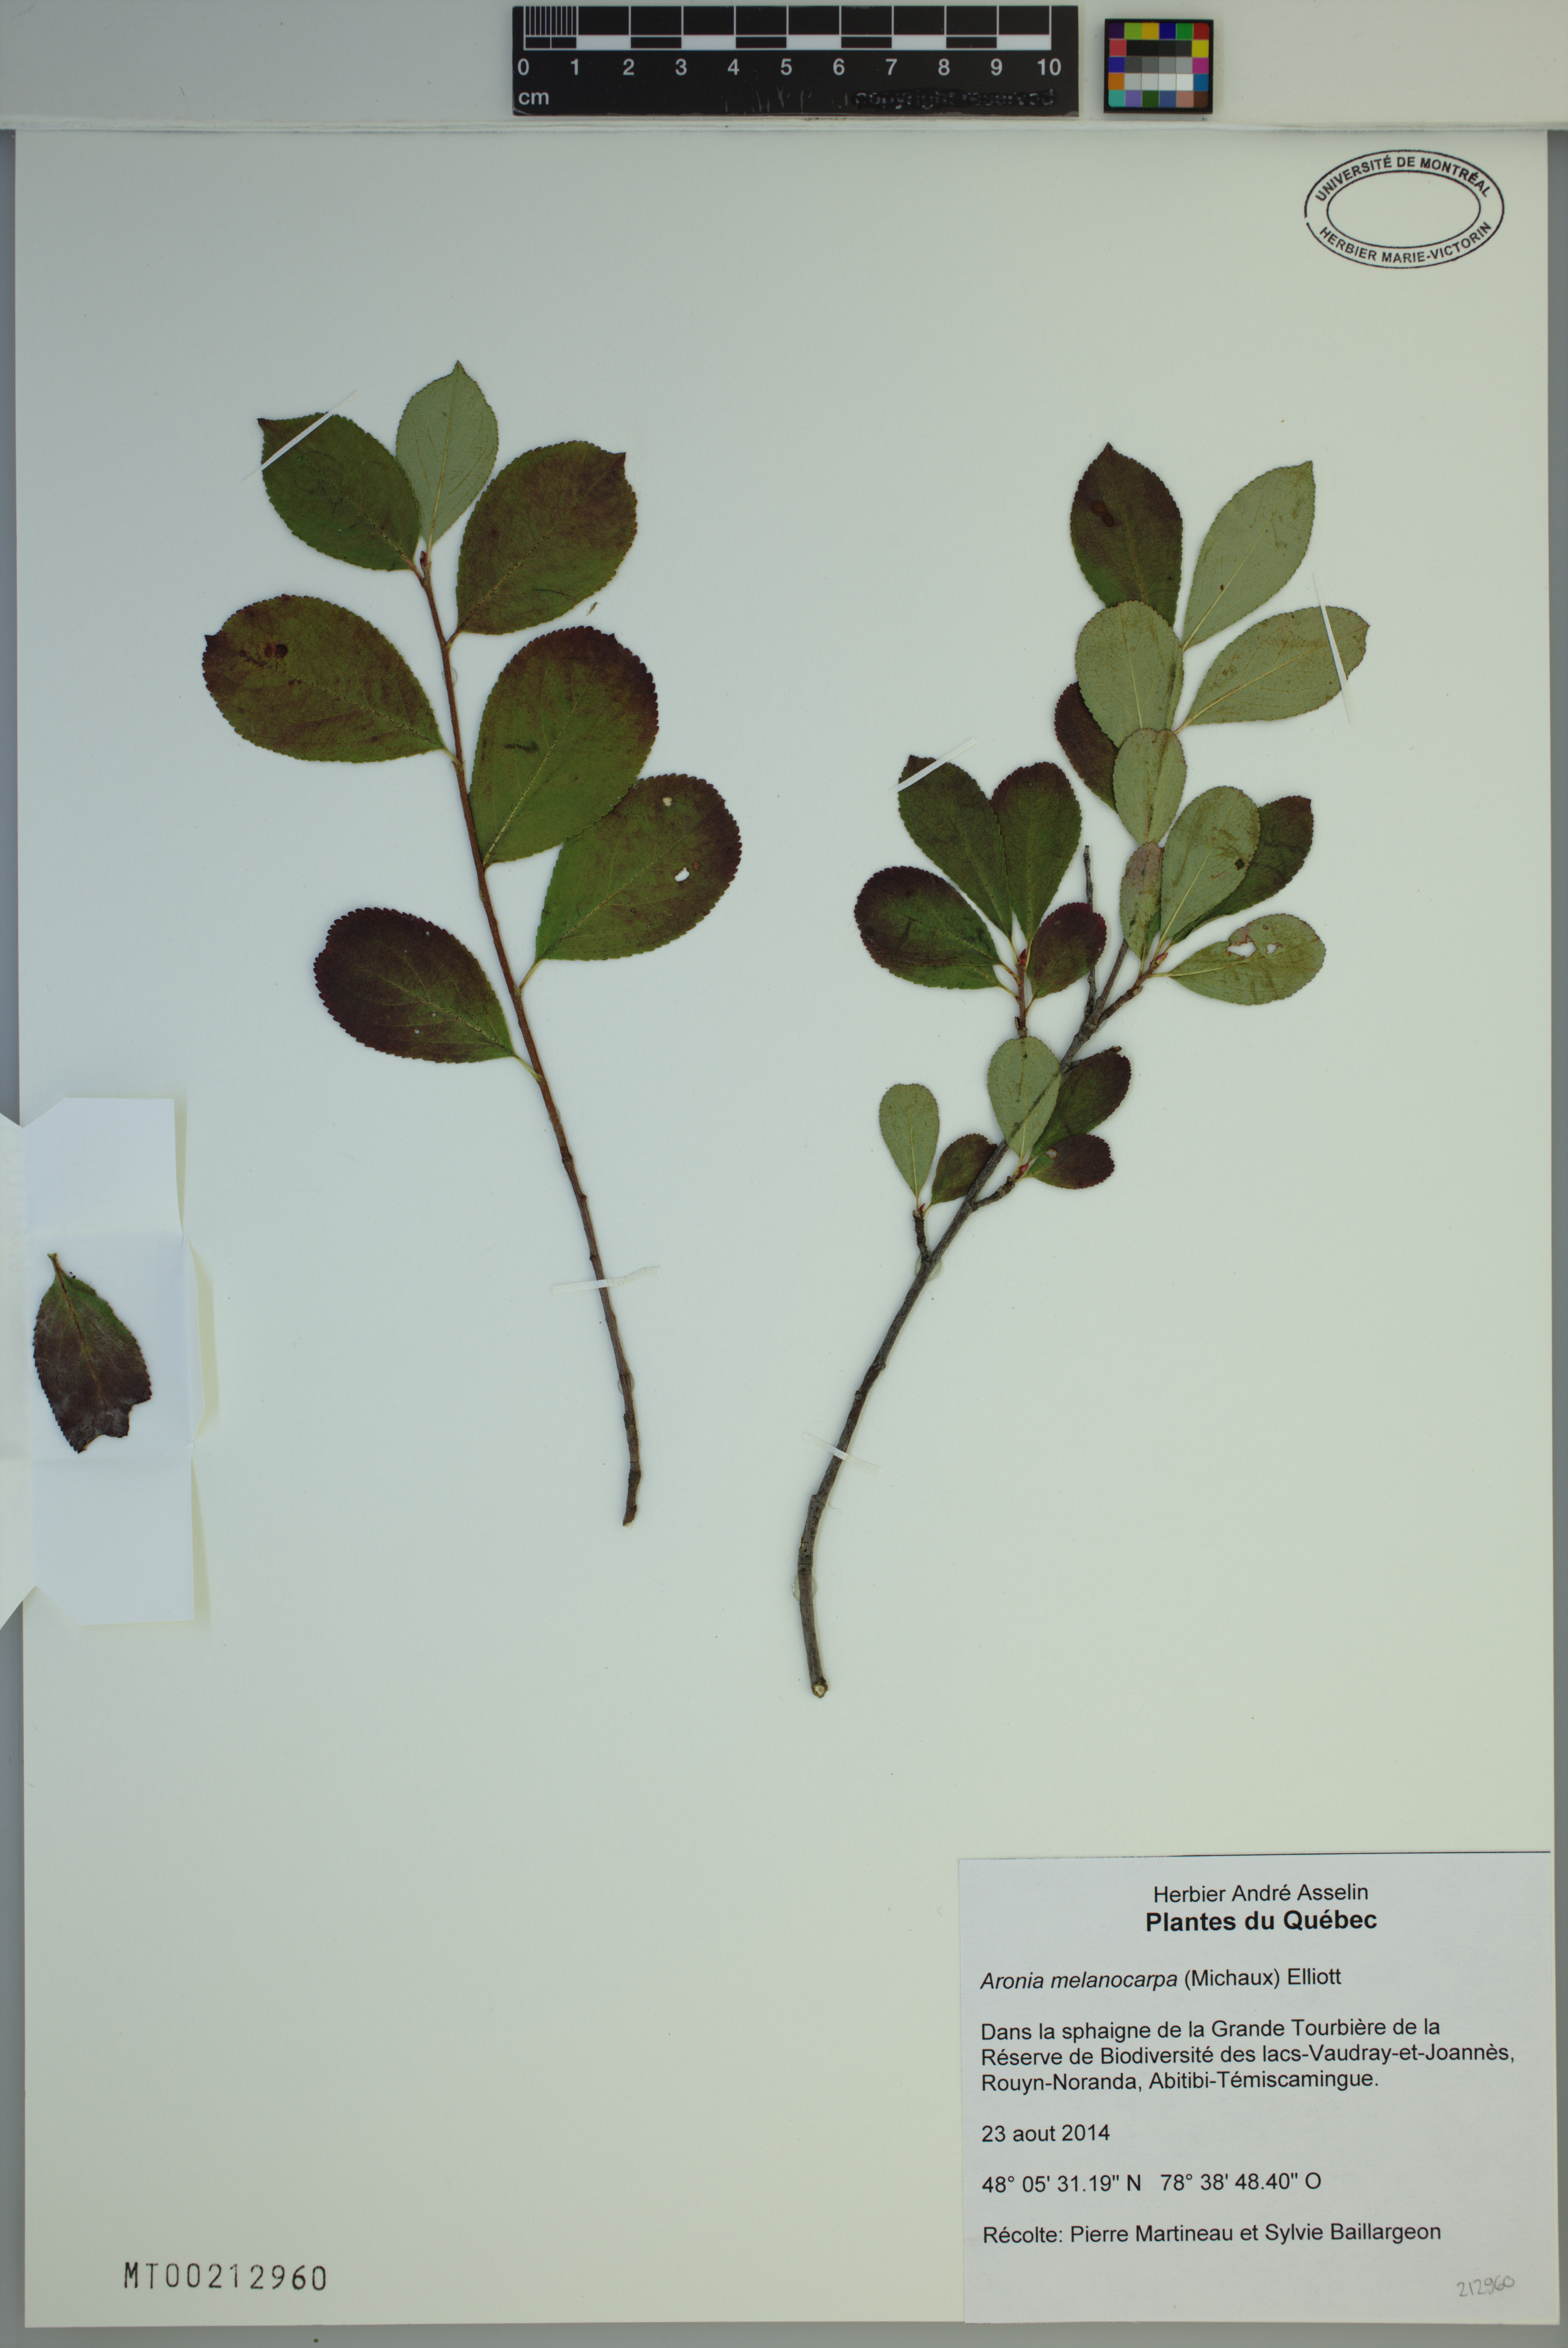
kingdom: Plantae
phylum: Tracheophyta
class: Magnoliopsida
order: Rosales
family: Rosaceae
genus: Aronia
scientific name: Aronia melanocarpa
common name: Black chokeberry
